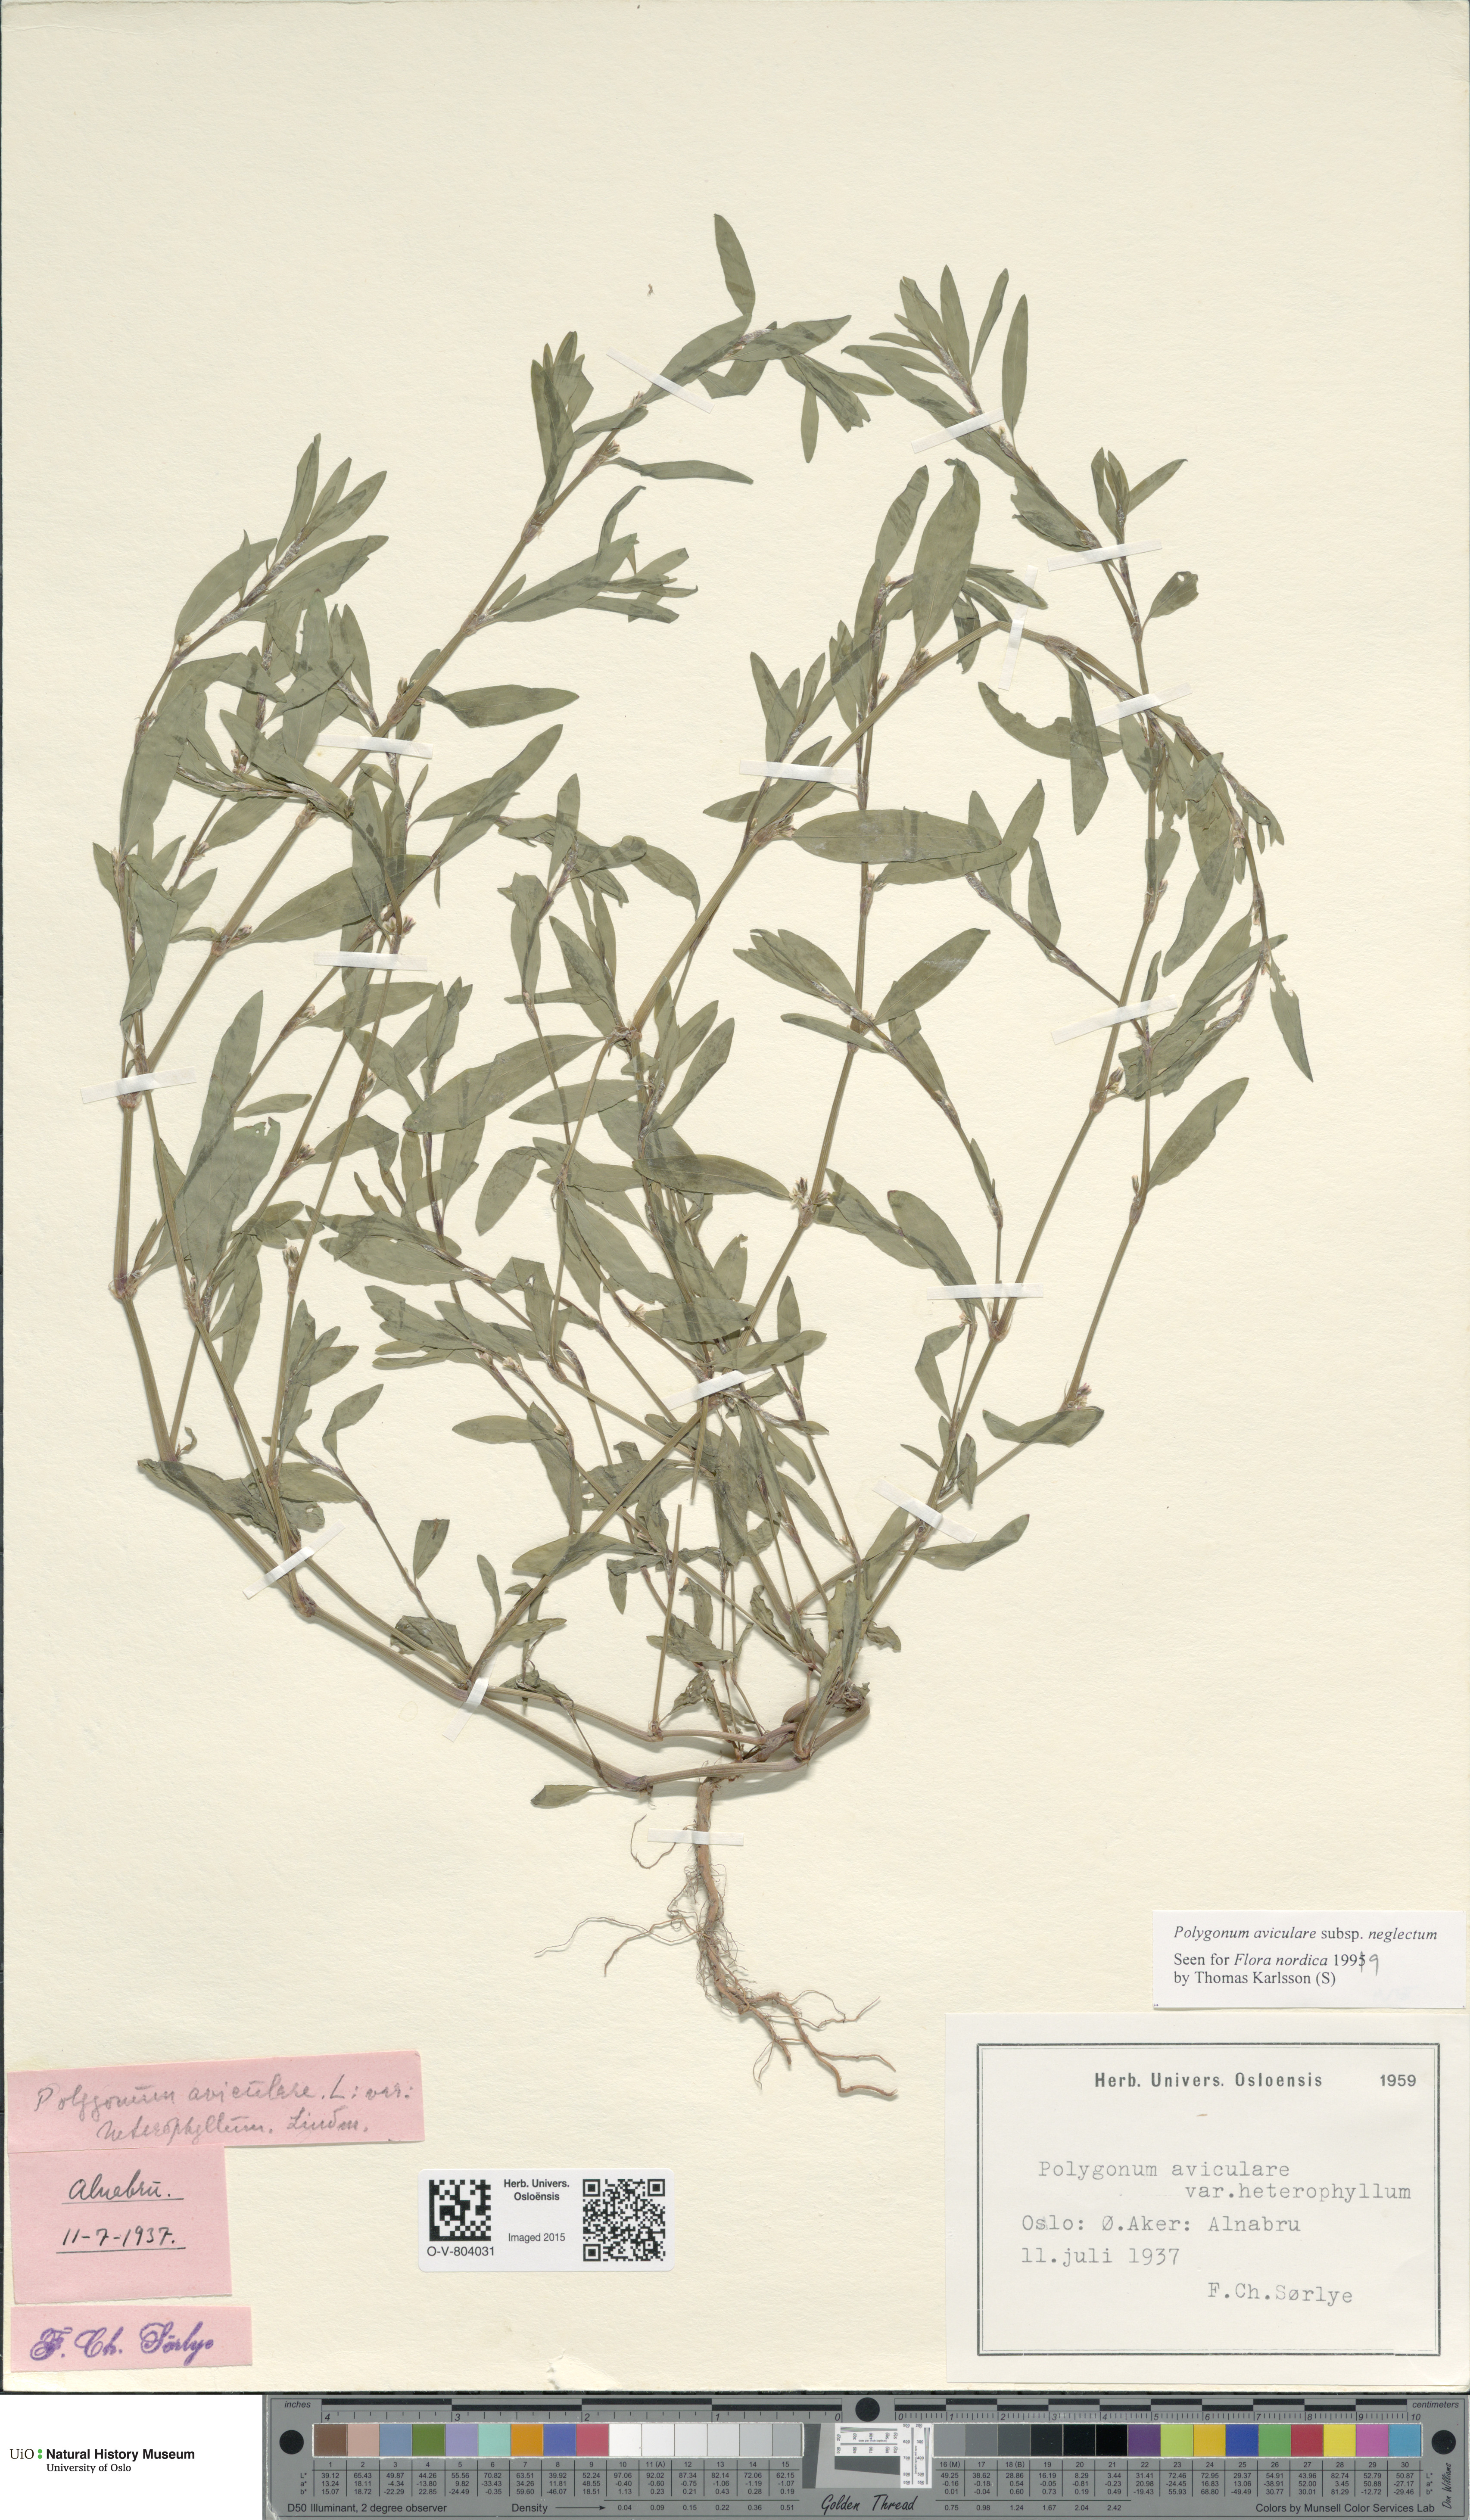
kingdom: Plantae
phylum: Tracheophyta
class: Magnoliopsida
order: Caryophyllales
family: Polygonaceae
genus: Polygonum
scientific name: Polygonum aviculare
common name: Prostrate knotweed
